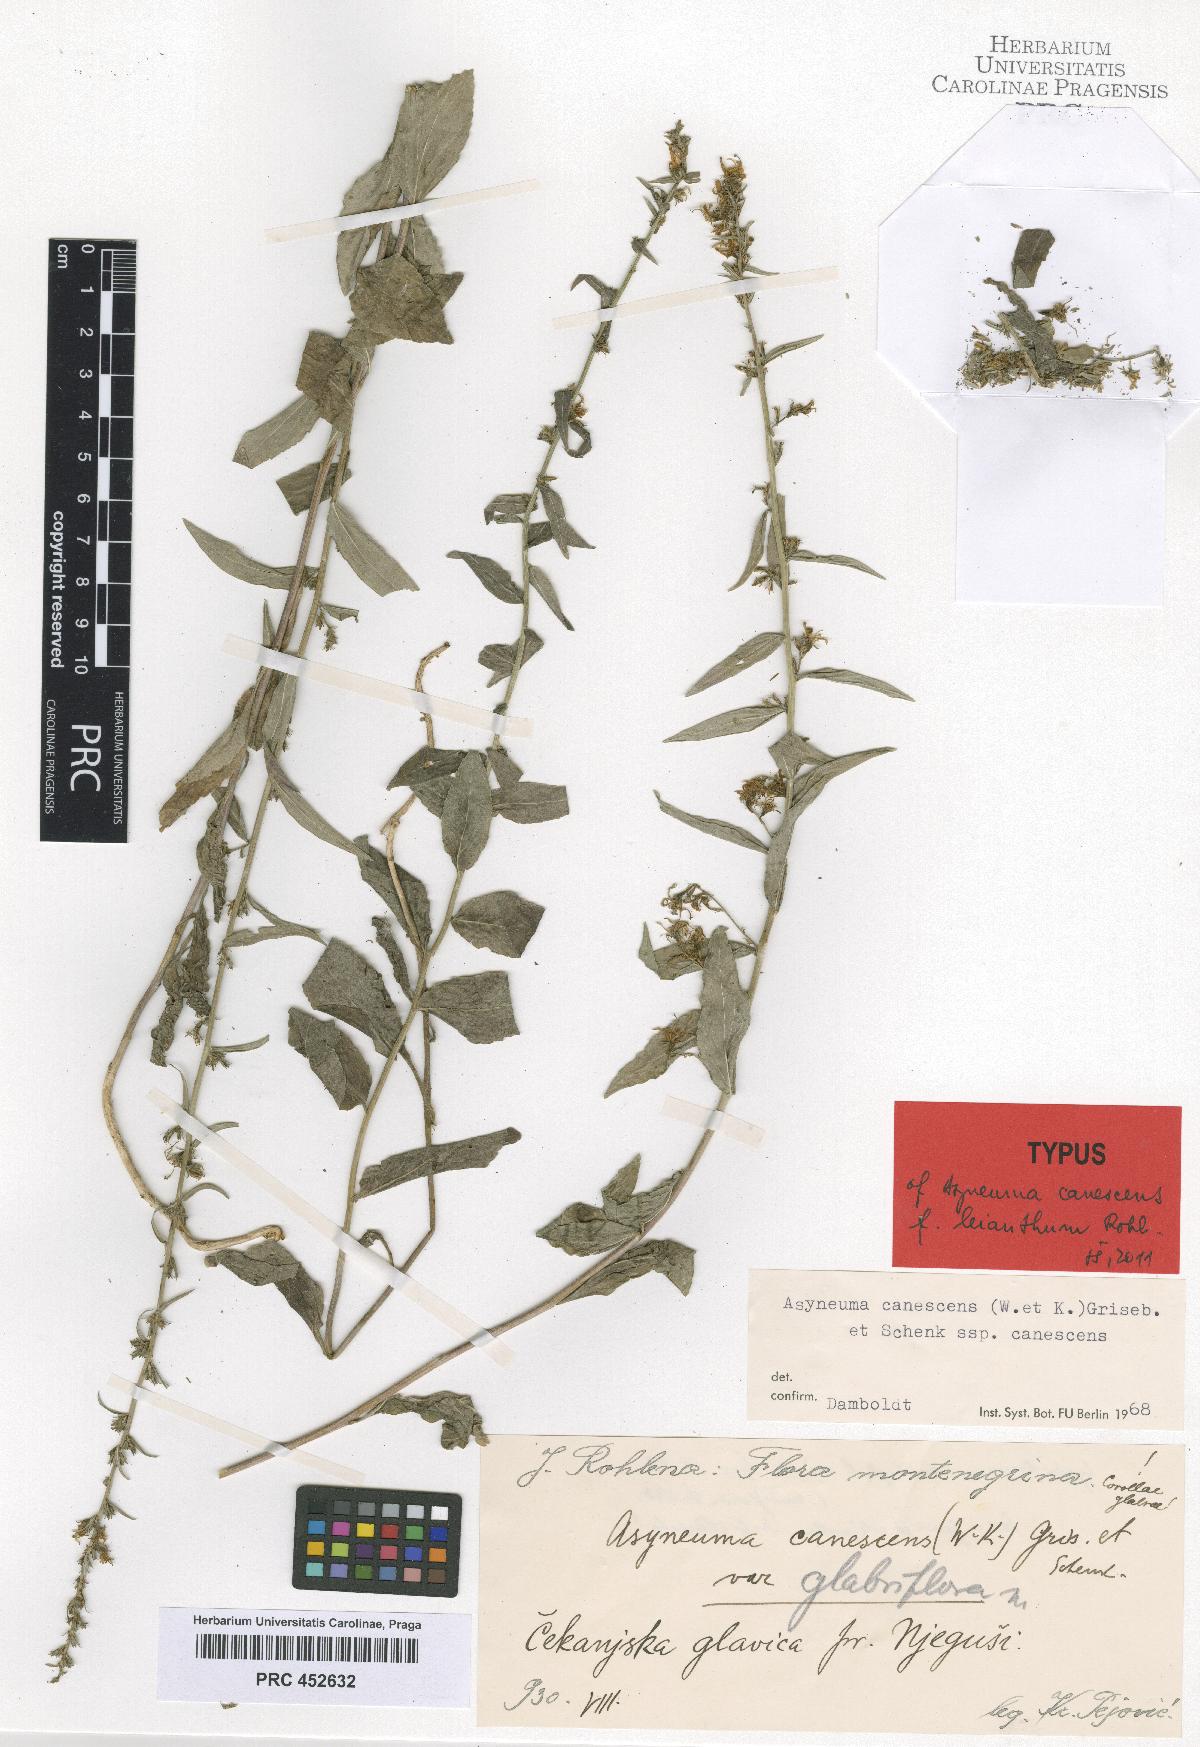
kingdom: Plantae
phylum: Tracheophyta
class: Magnoliopsida
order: Asterales
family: Campanulaceae
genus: Asyneuma
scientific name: Asyneuma canescens
